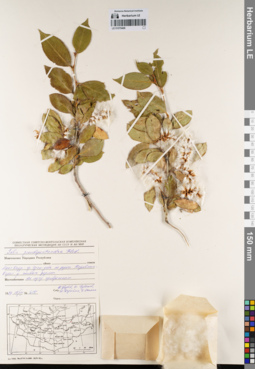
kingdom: Plantae
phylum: Tracheophyta
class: Magnoliopsida
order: Malpighiales
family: Salicaceae
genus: Salix
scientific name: Salix pseudopentandra
